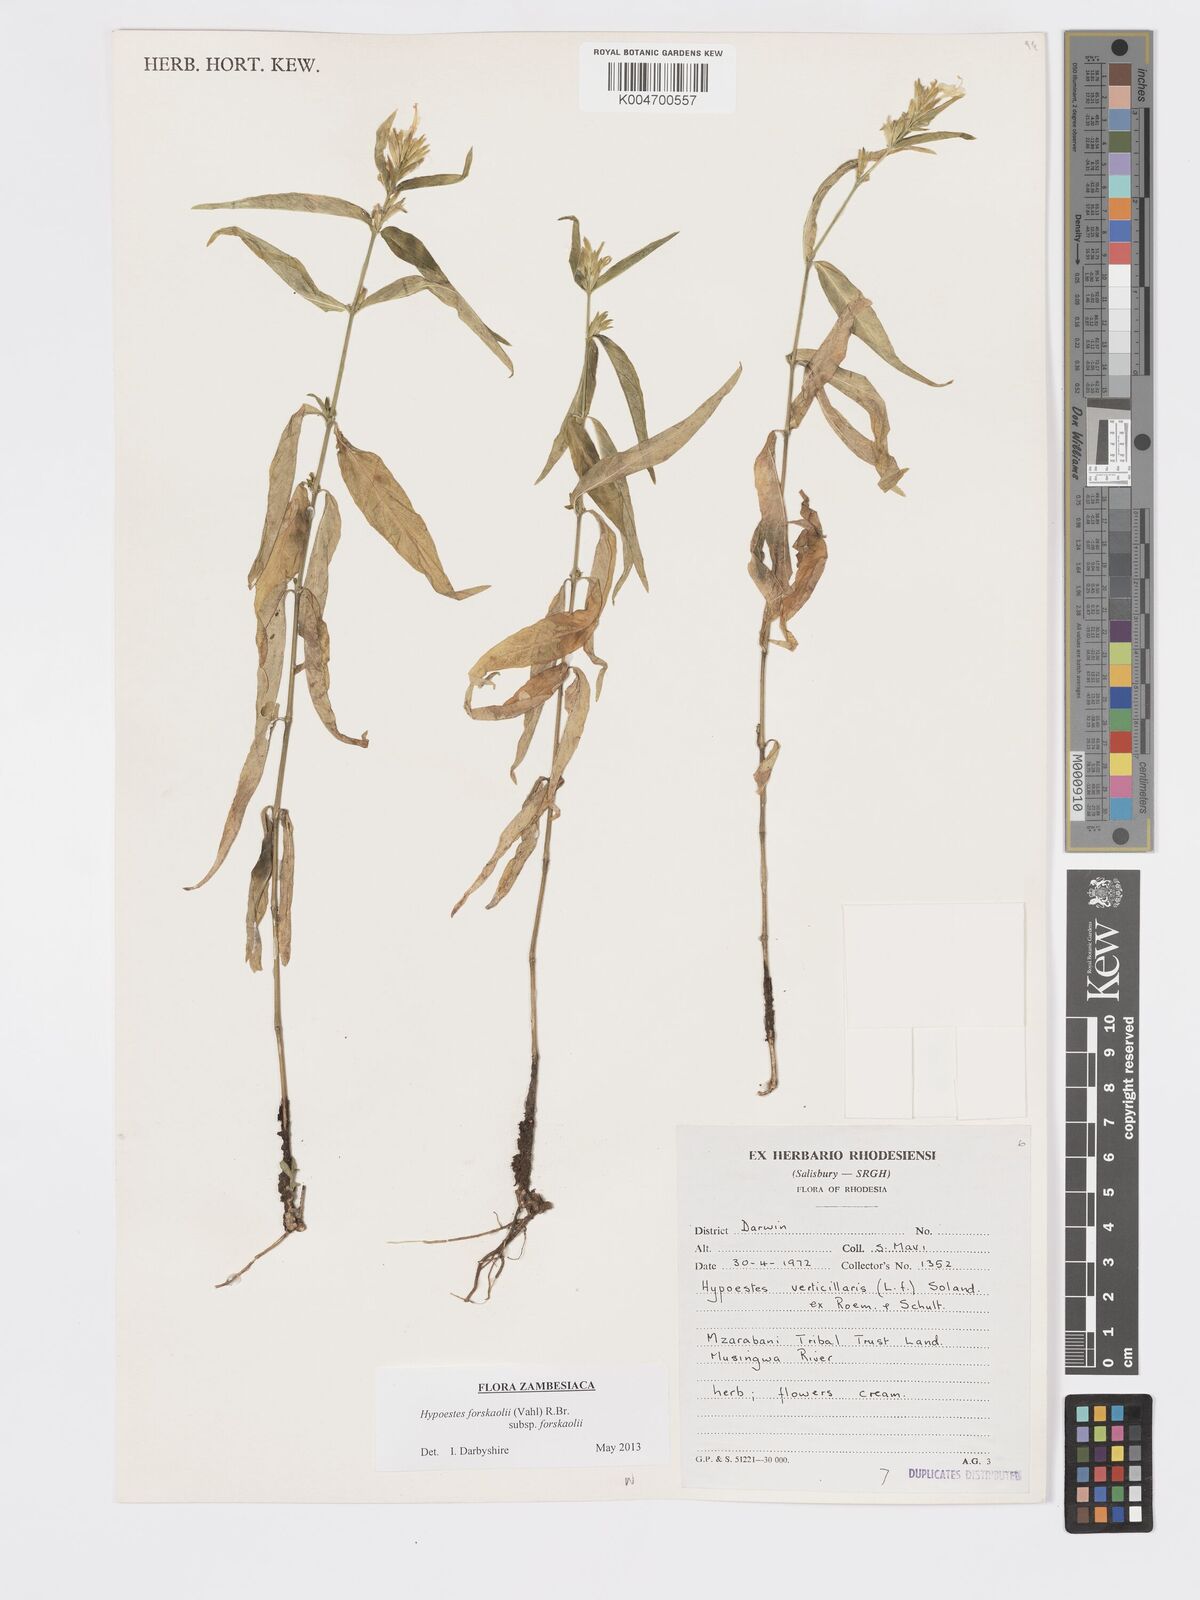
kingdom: Plantae
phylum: Tracheophyta
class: Magnoliopsida
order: Lamiales
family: Acanthaceae
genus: Hypoestes
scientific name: Hypoestes forskaolii
